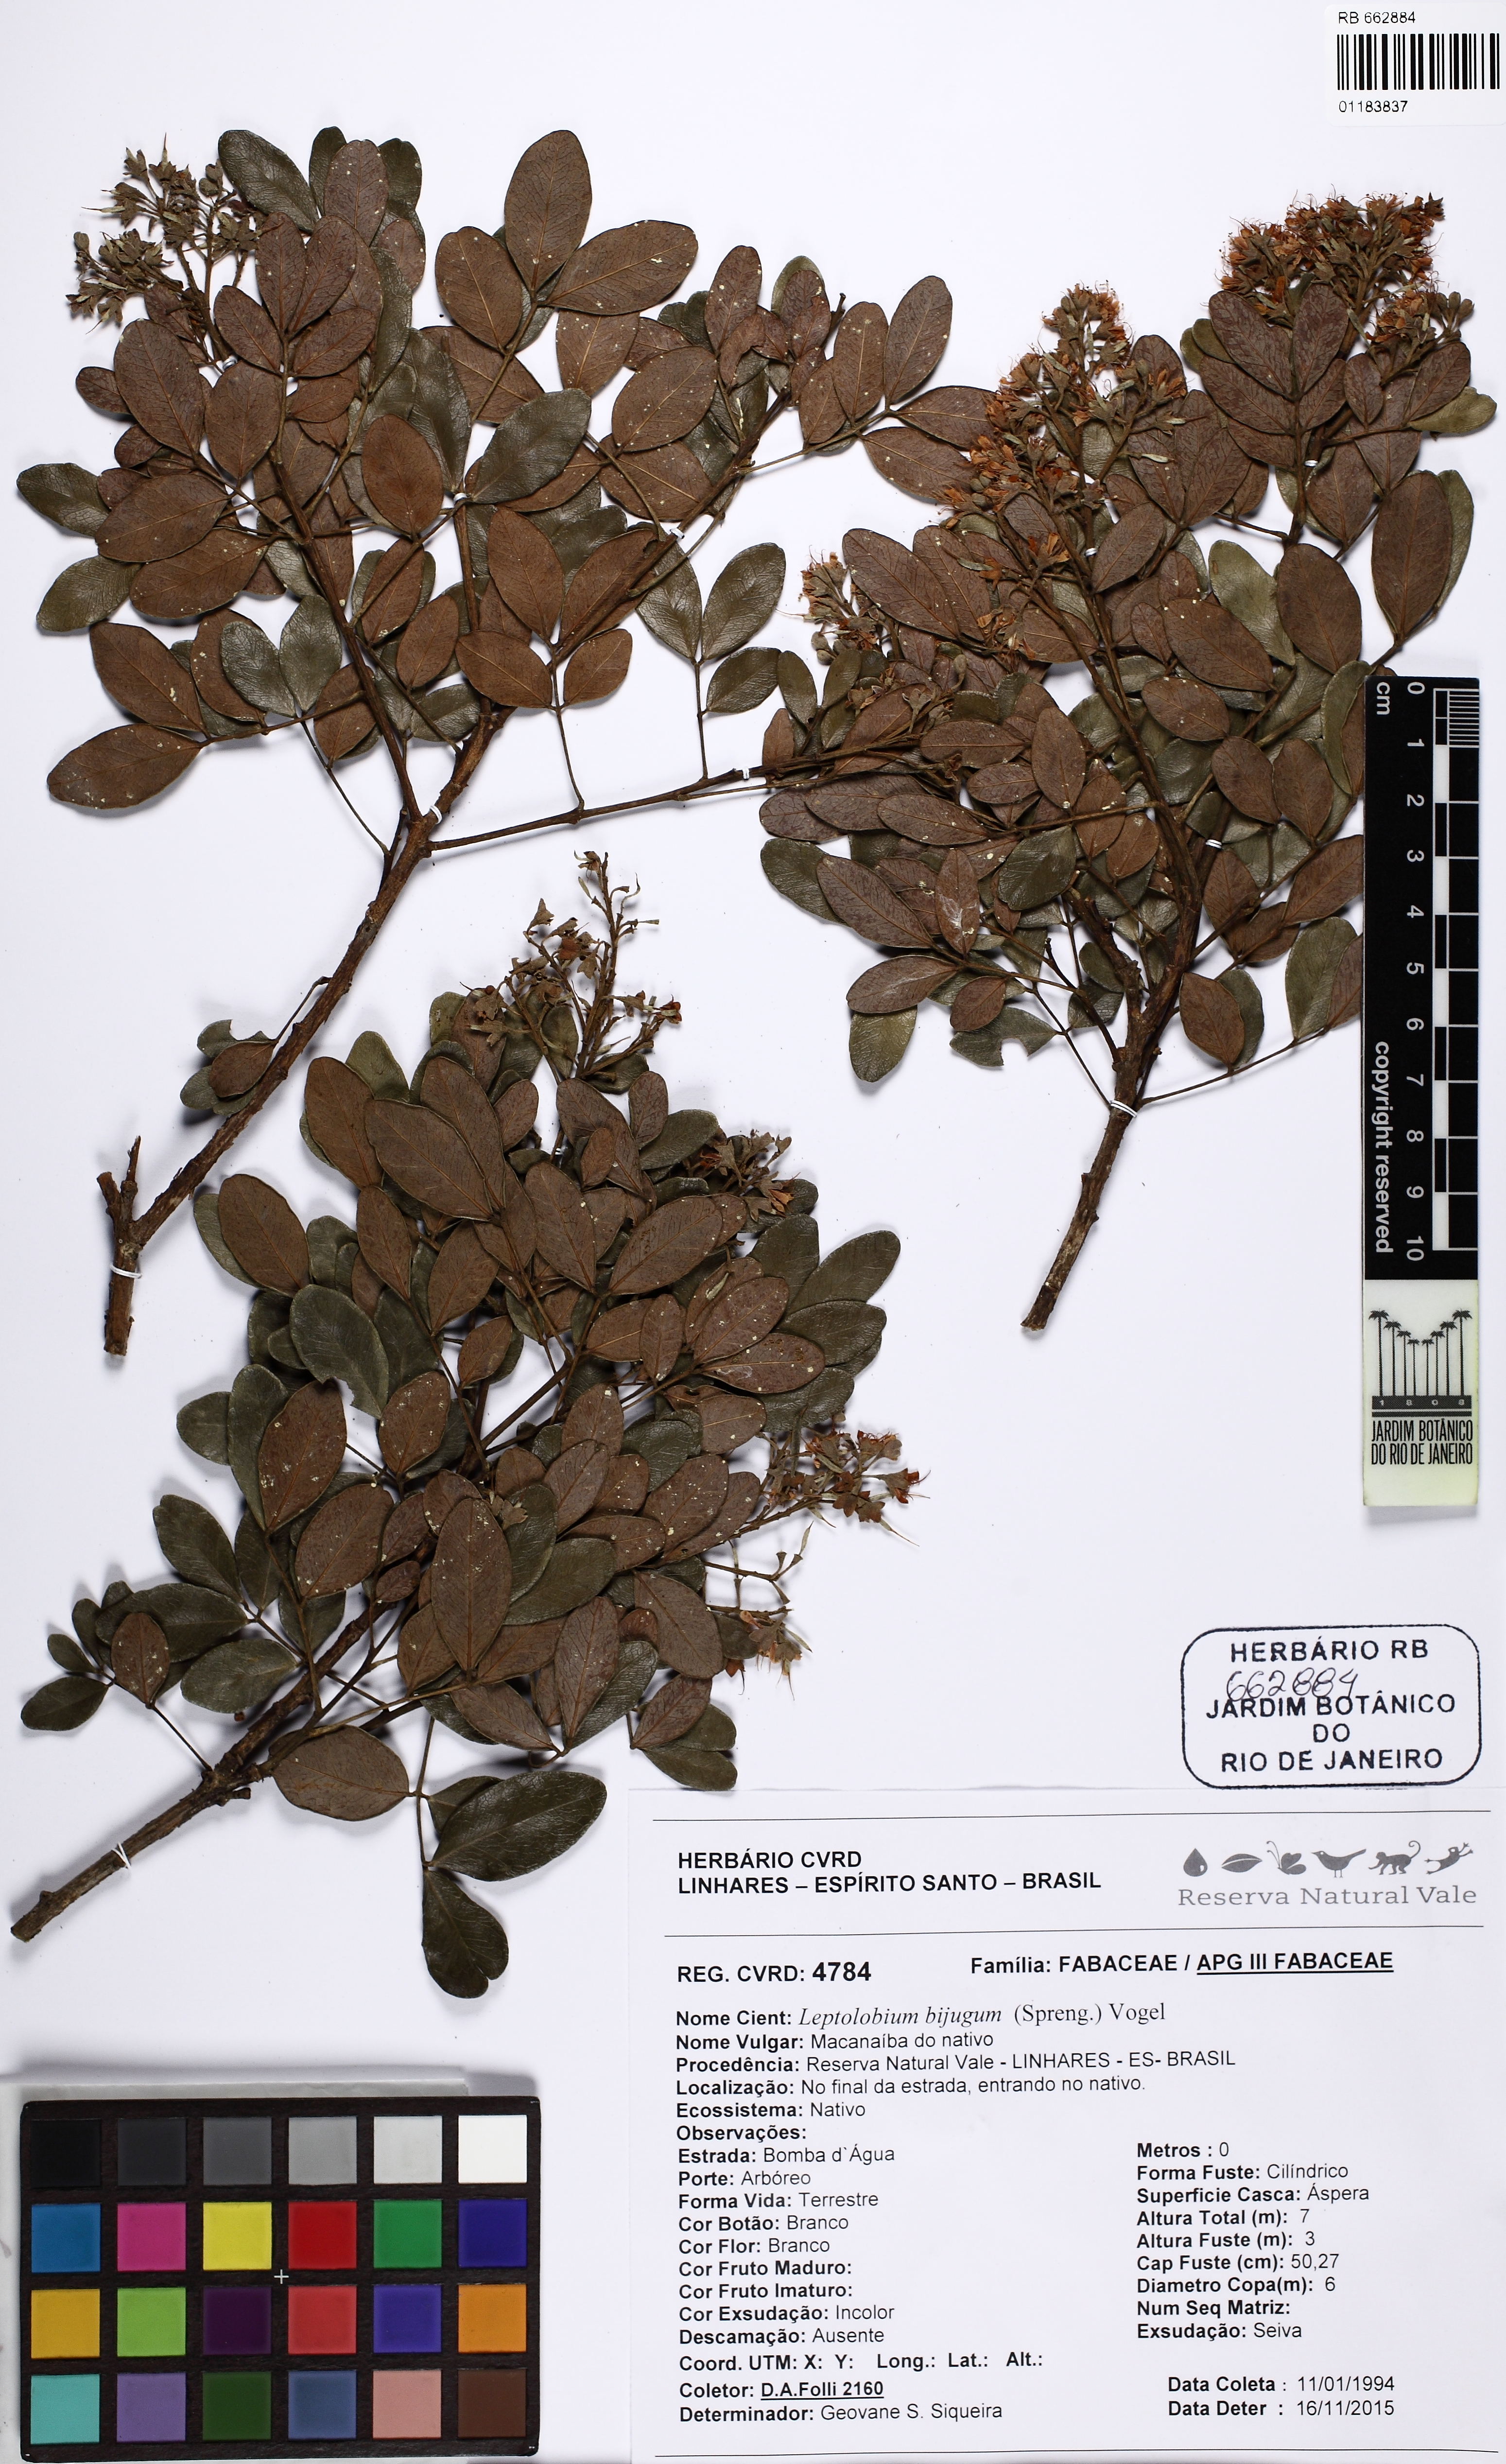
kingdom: Plantae
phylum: Tracheophyta
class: Magnoliopsida
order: Fabales
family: Fabaceae
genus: Leptolobium
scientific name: Leptolobium bijugum
